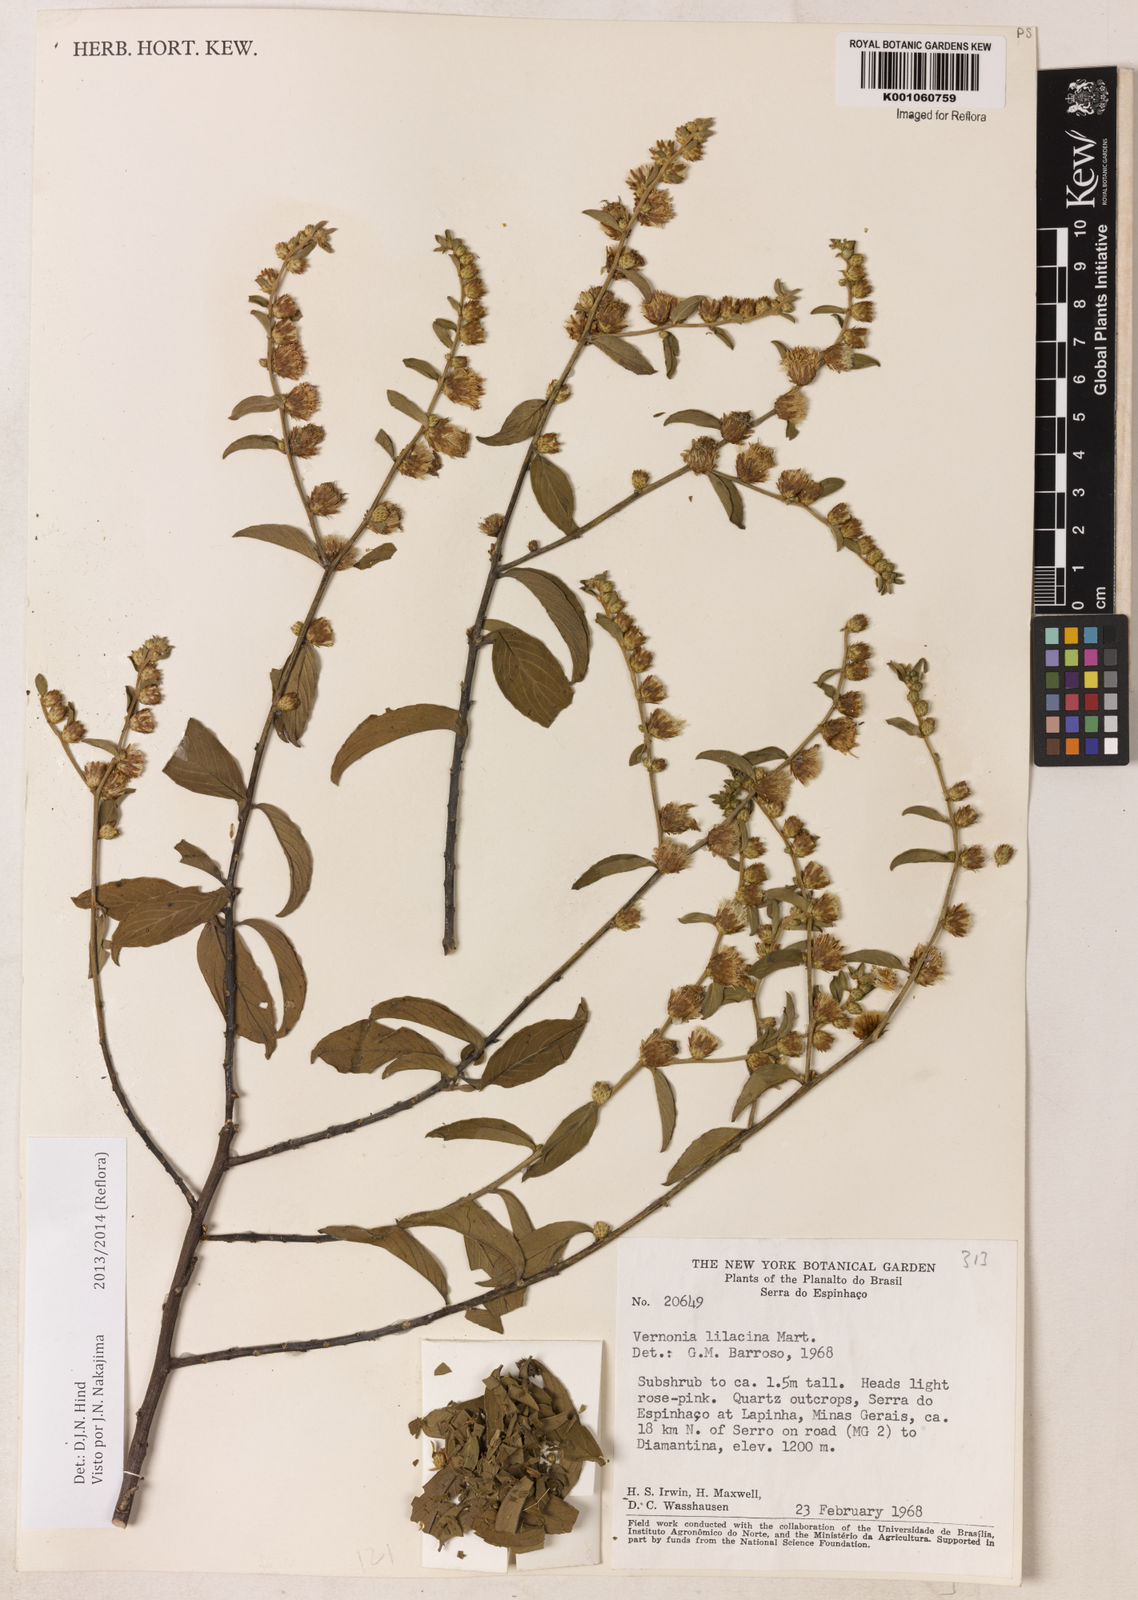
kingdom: Plantae
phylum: Tracheophyta
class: Magnoliopsida
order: Asterales
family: Asteraceae
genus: Lepidaploa
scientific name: Lepidaploa lilacina
